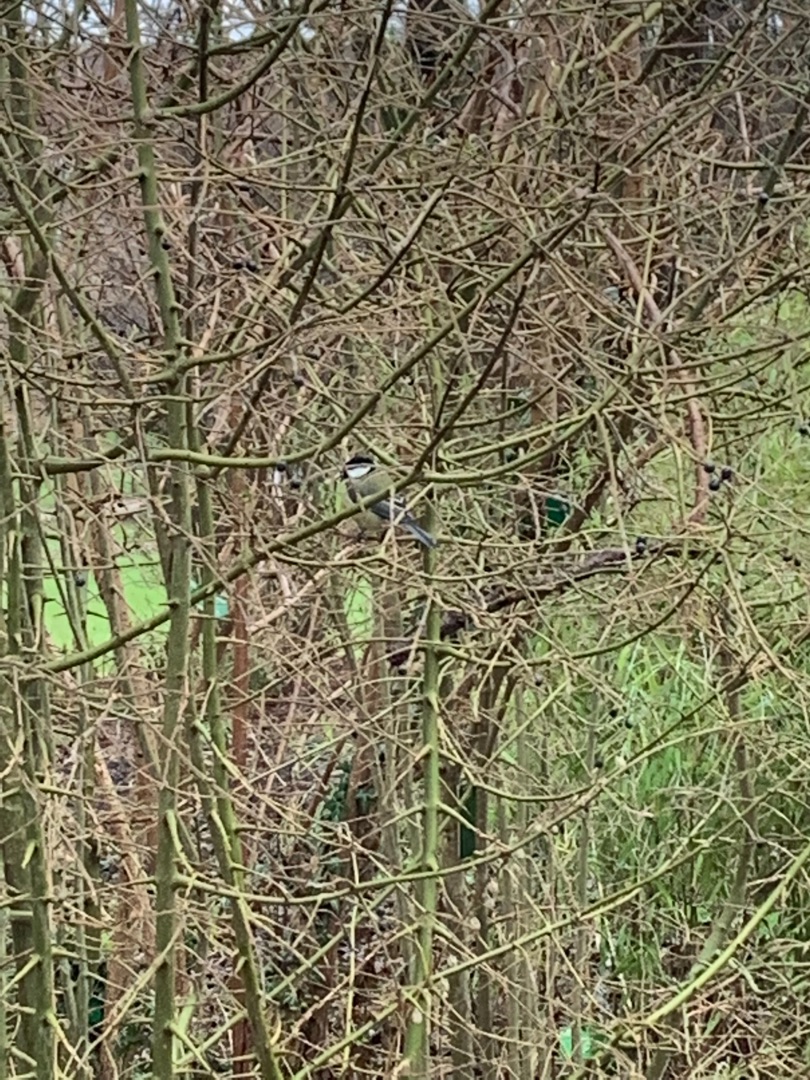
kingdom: Animalia
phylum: Chordata
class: Aves
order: Passeriformes
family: Paridae
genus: Parus
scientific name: Parus major
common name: Musvit
